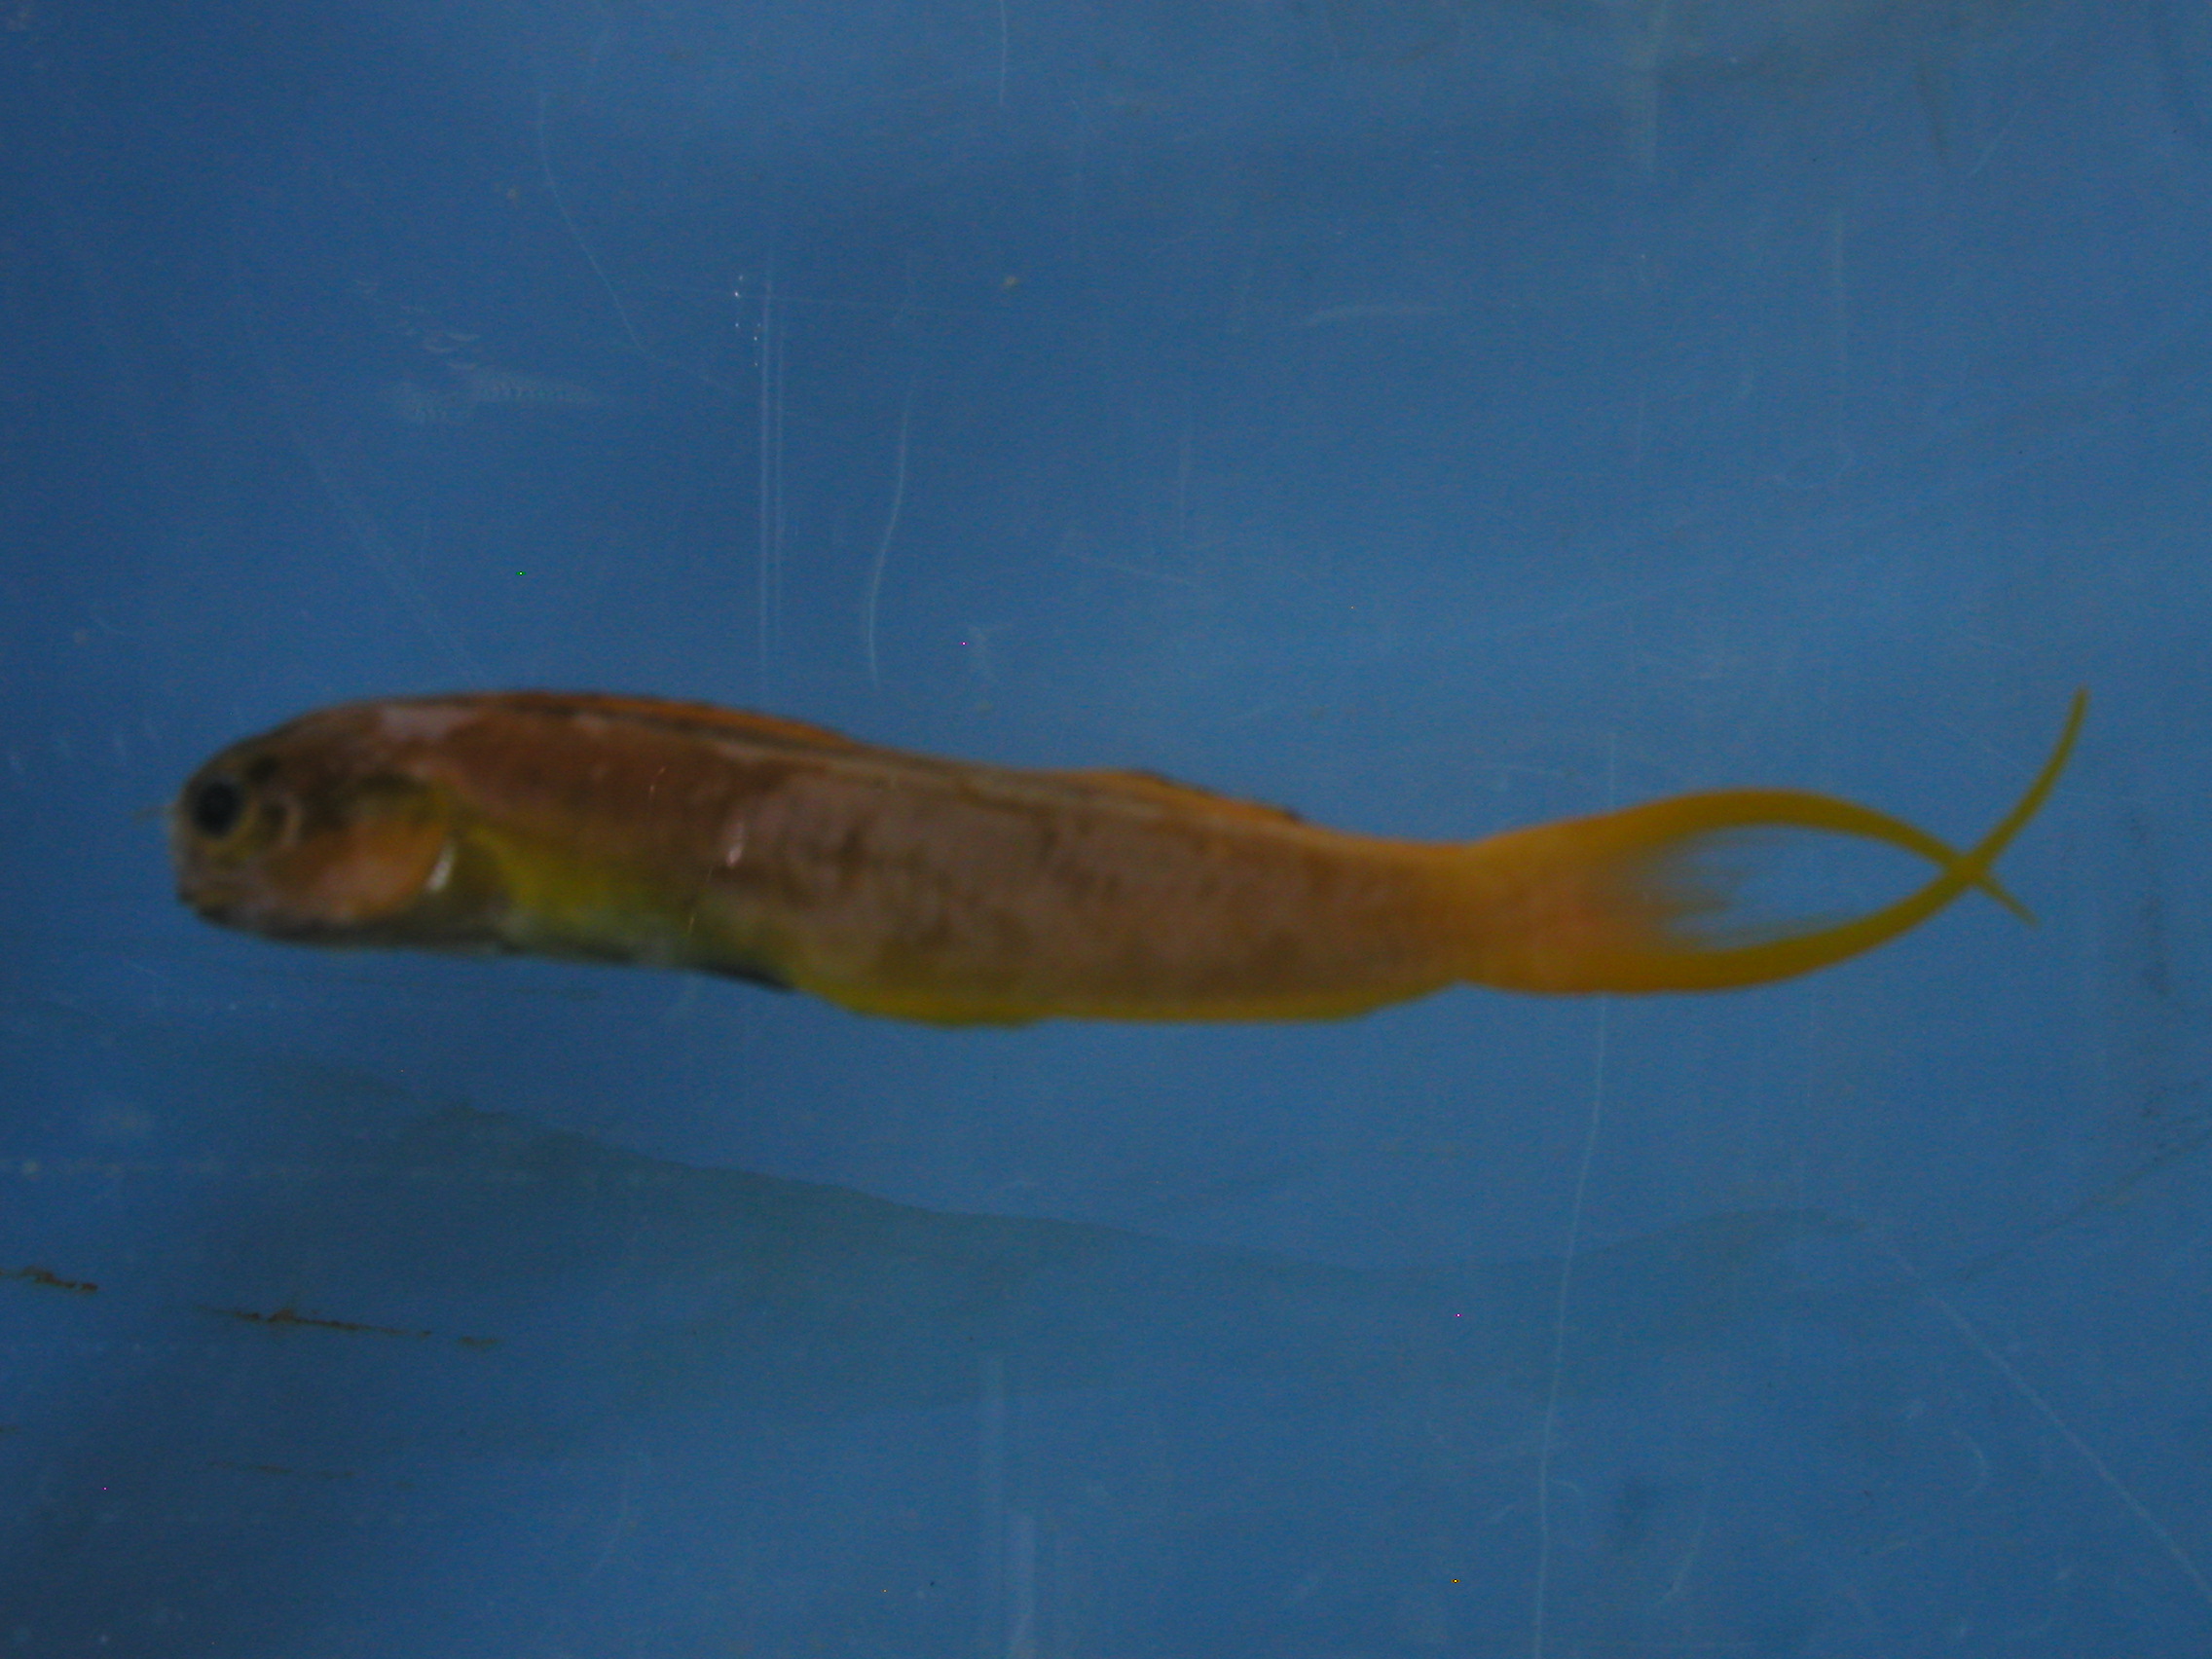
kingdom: Animalia
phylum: Chordata
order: Perciformes
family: Blenniidae
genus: Ecsenius
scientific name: Ecsenius midas
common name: Golden blenny
